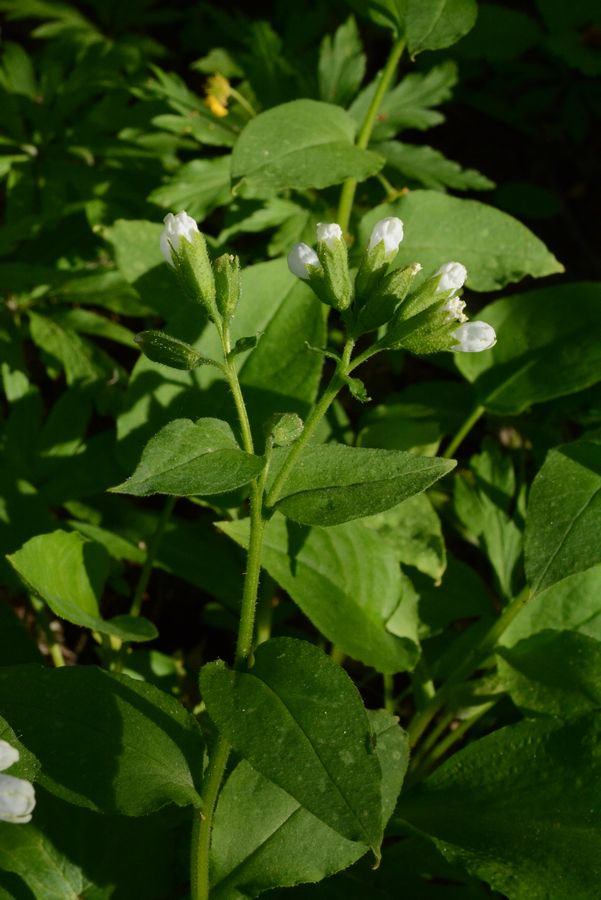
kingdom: Plantae
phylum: Tracheophyta
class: Magnoliopsida
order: Boraginales
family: Boraginaceae
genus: Pulmonaria
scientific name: Pulmonaria obscura
